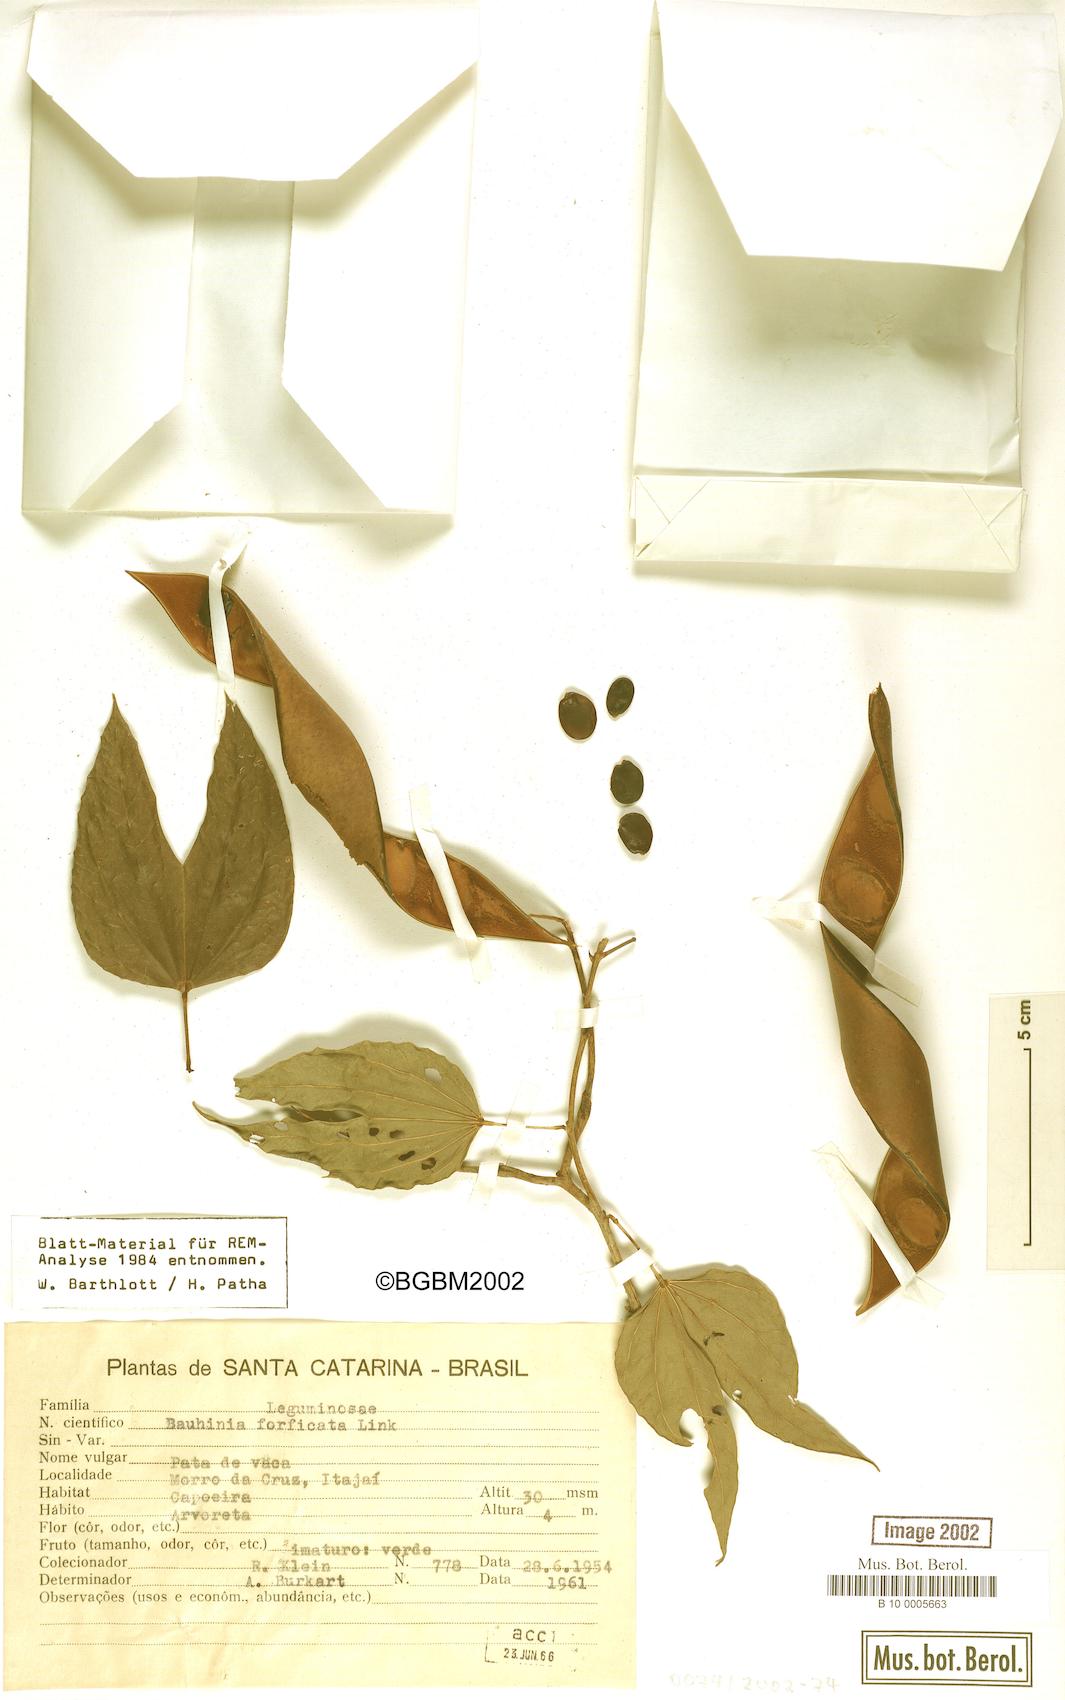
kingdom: Plantae
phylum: Tracheophyta
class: Magnoliopsida
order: Fabales
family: Fabaceae
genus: Bauhinia
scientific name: Bauhinia forficata
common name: Orchid tree
